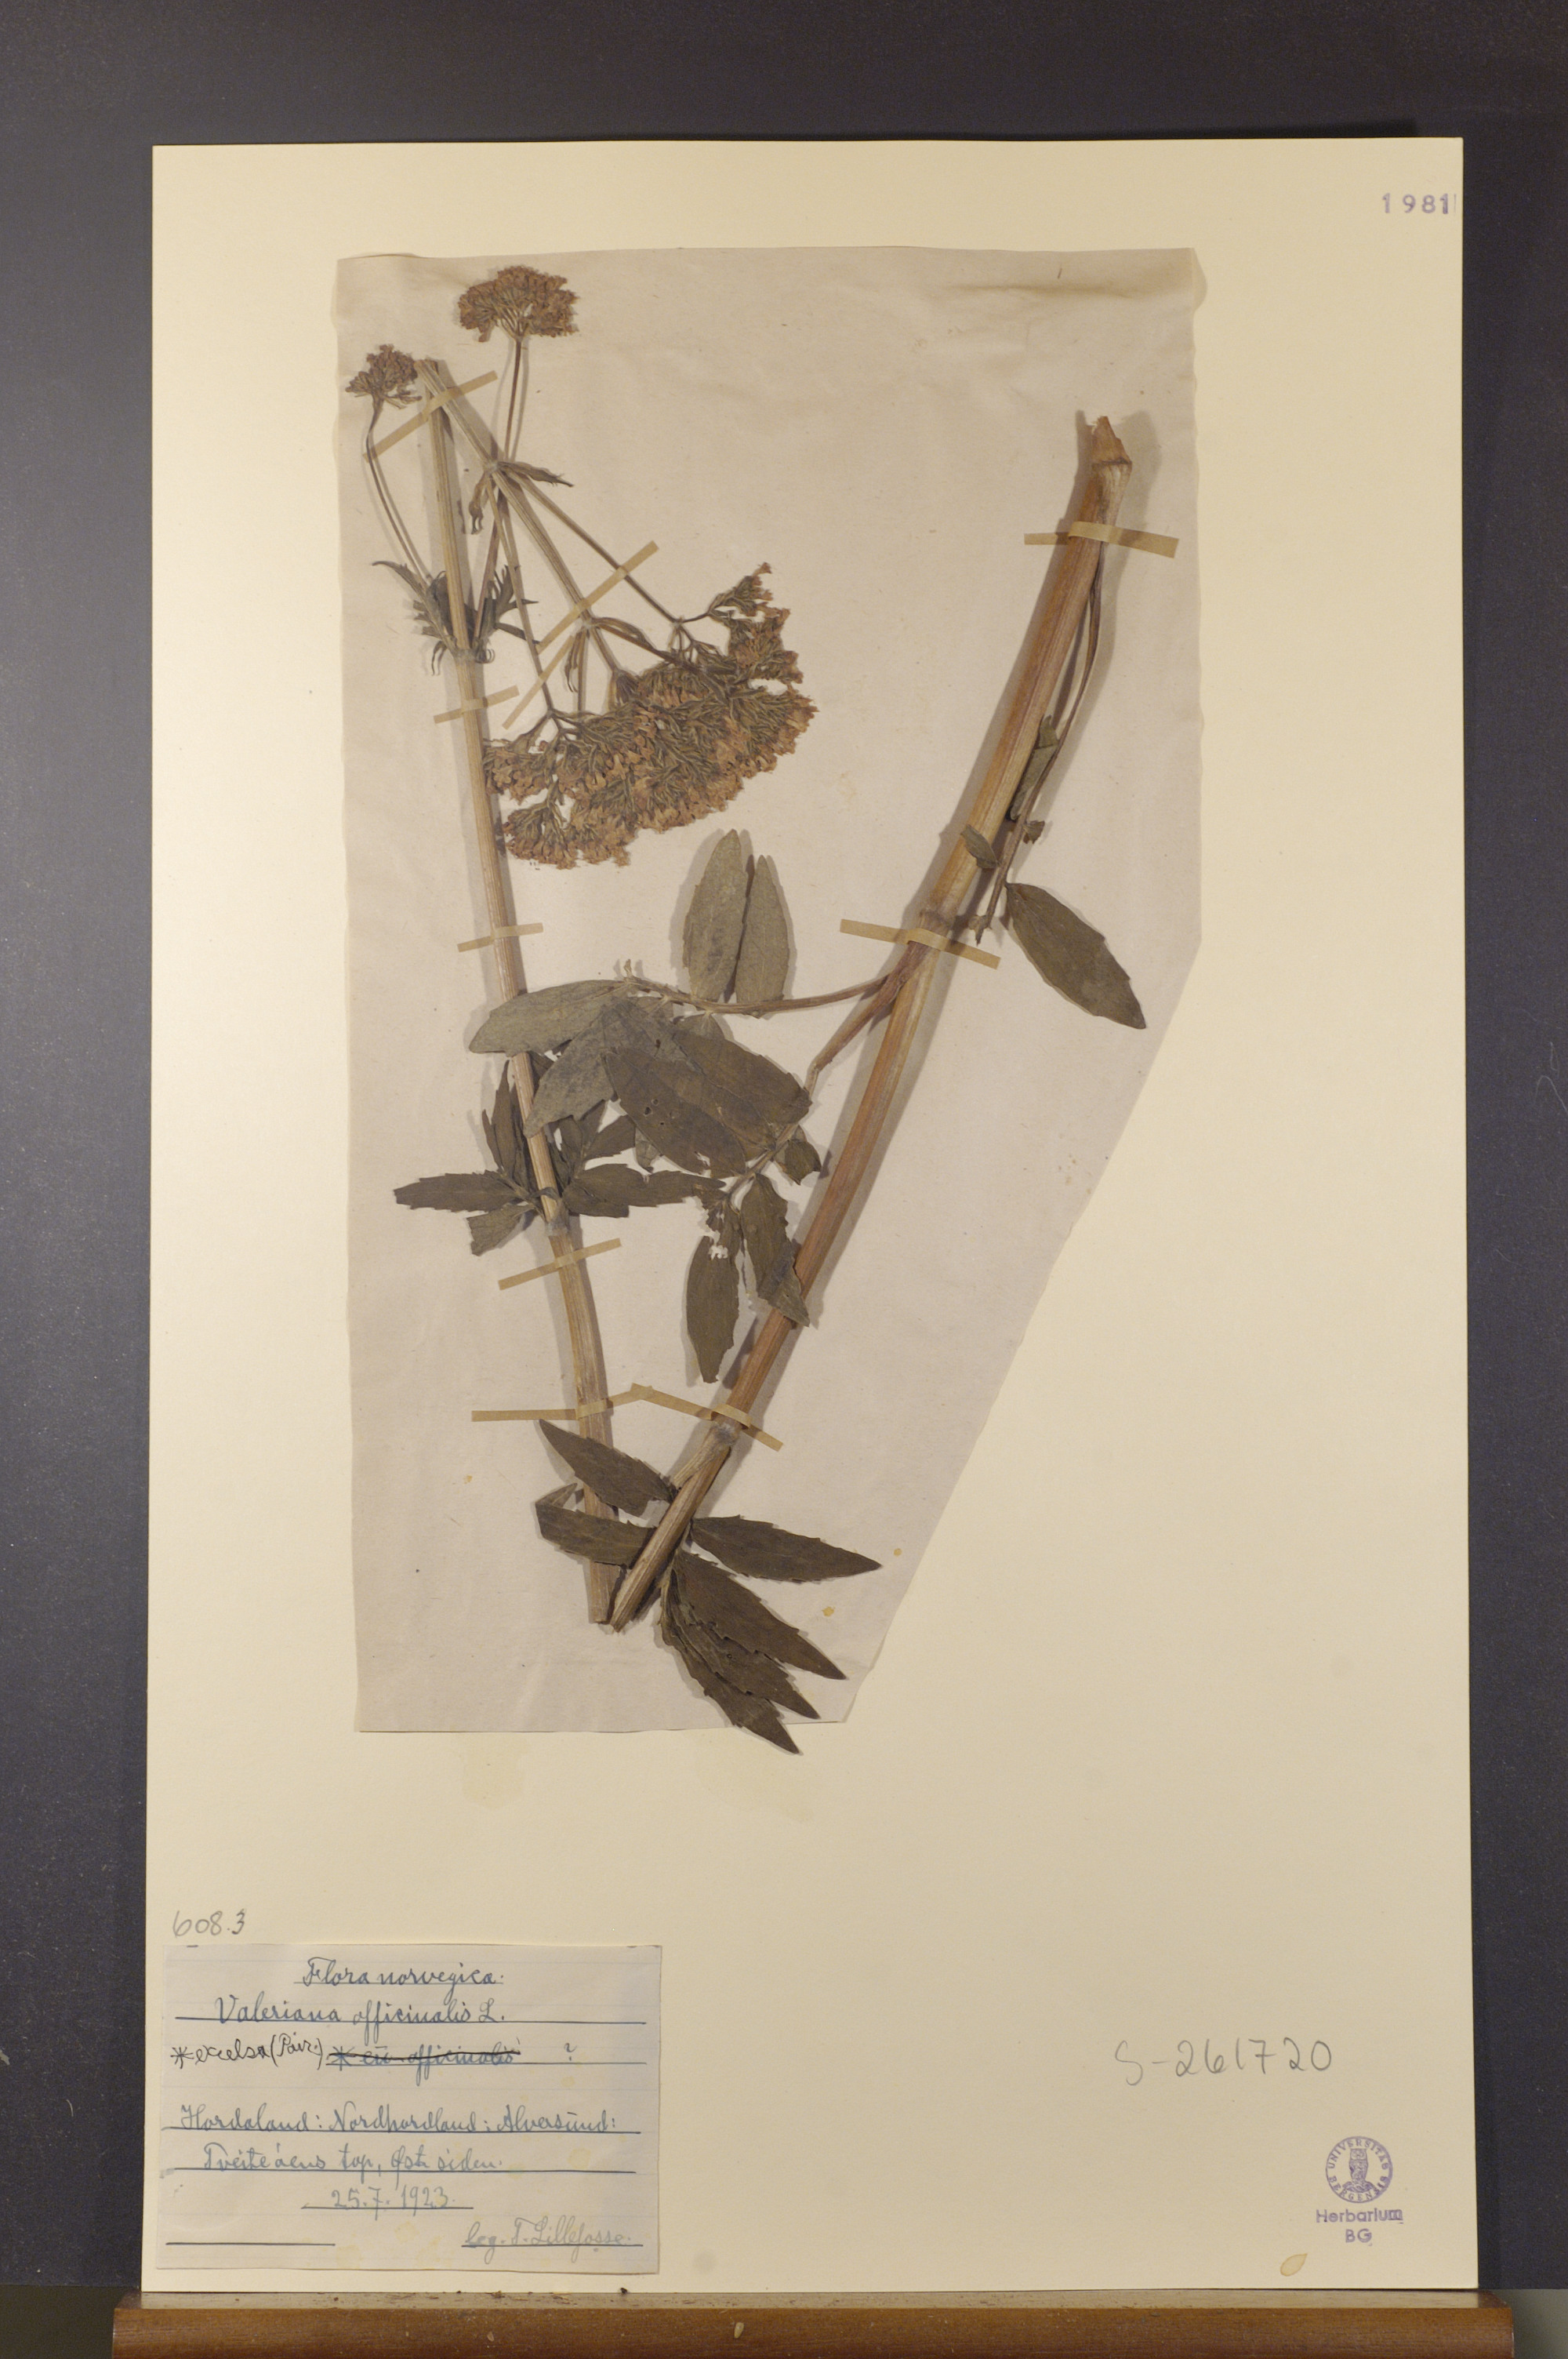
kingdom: Plantae
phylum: Tracheophyta
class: Magnoliopsida
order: Dipsacales
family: Caprifoliaceae
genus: Valeriana
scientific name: Valeriana sambucifolia
